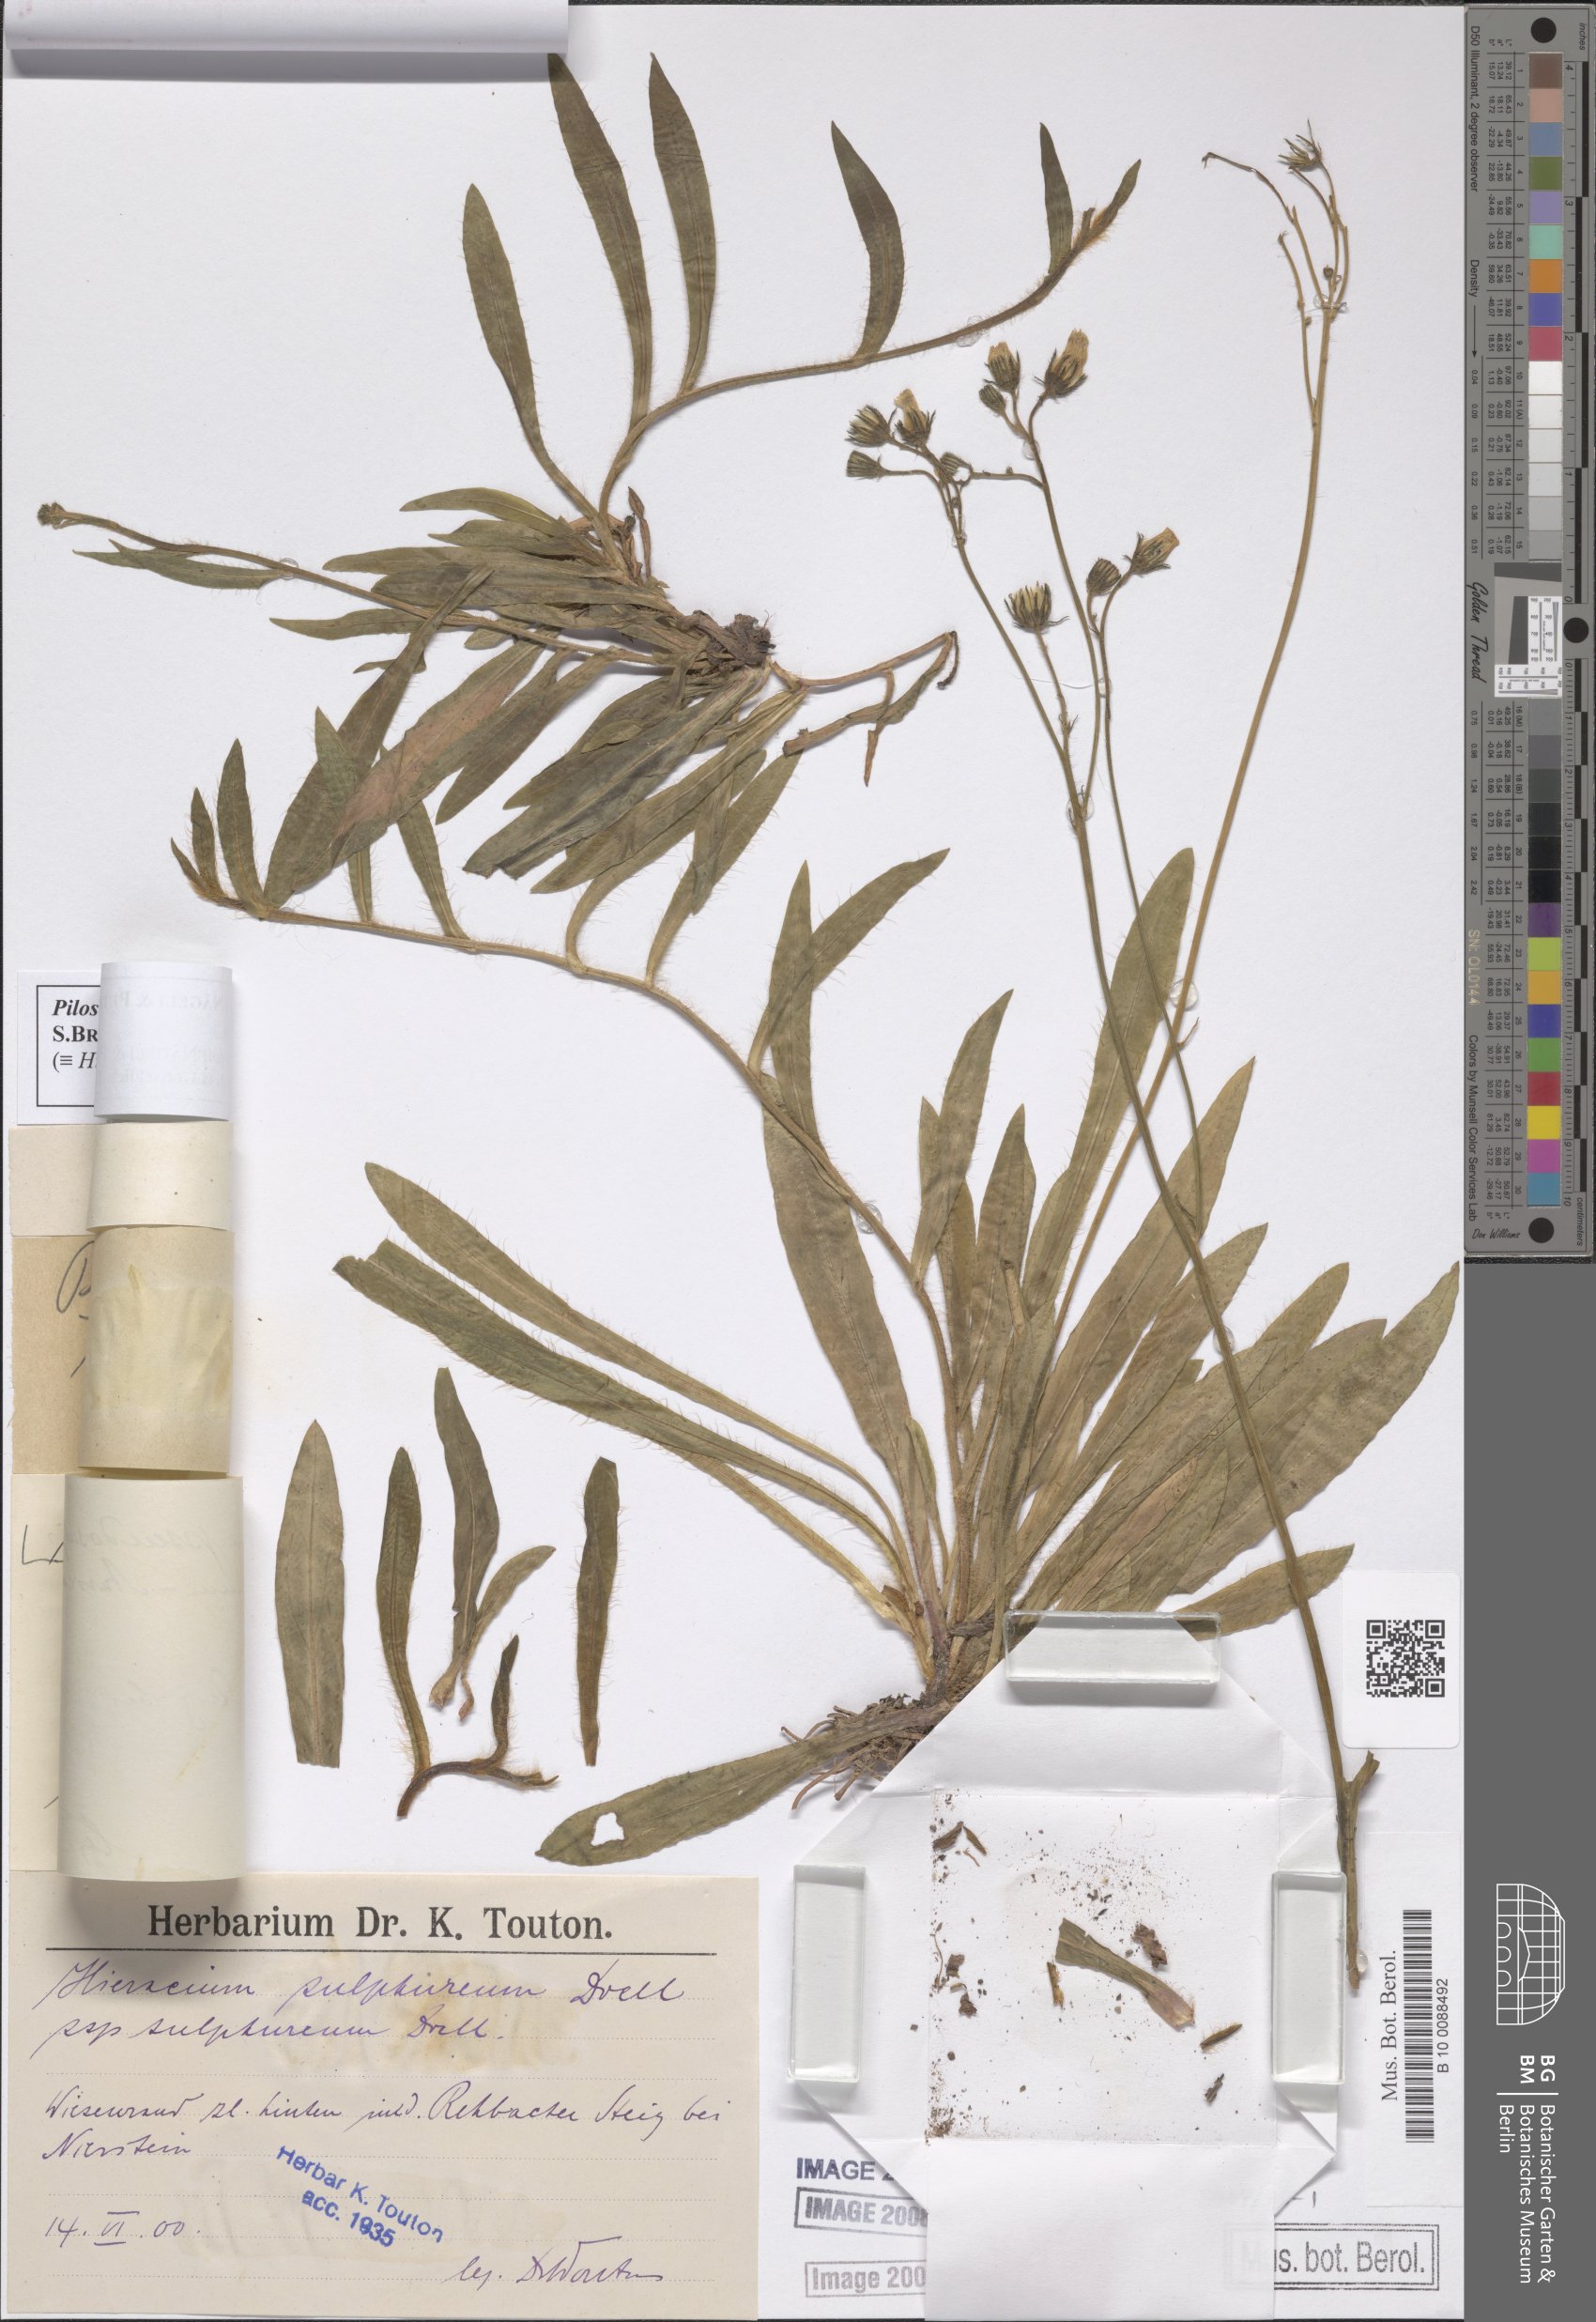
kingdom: Plantae
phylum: Tracheophyta
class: Magnoliopsida
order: Asterales
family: Asteraceae
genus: Pilosella
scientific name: Pilosella pseudosulphurea
